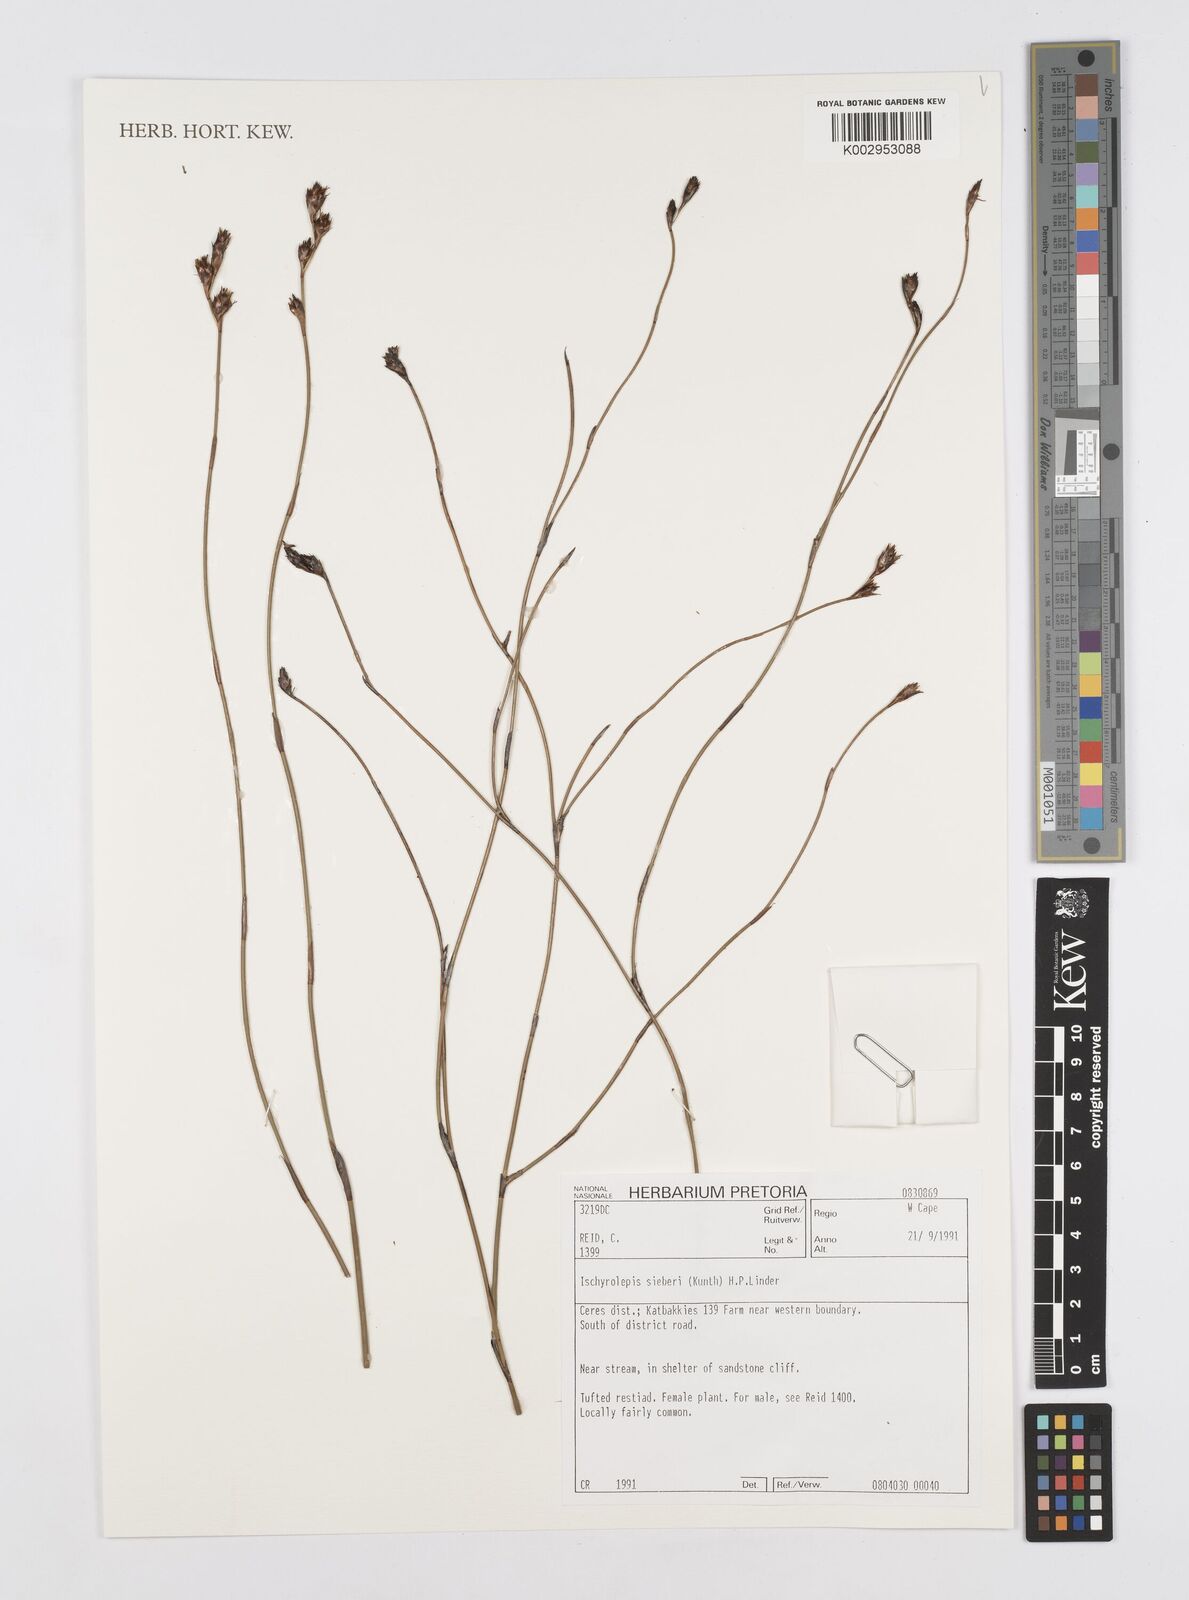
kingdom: Plantae
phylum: Tracheophyta
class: Liliopsida
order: Poales
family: Restionaceae
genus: Restio
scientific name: Restio sieberi
